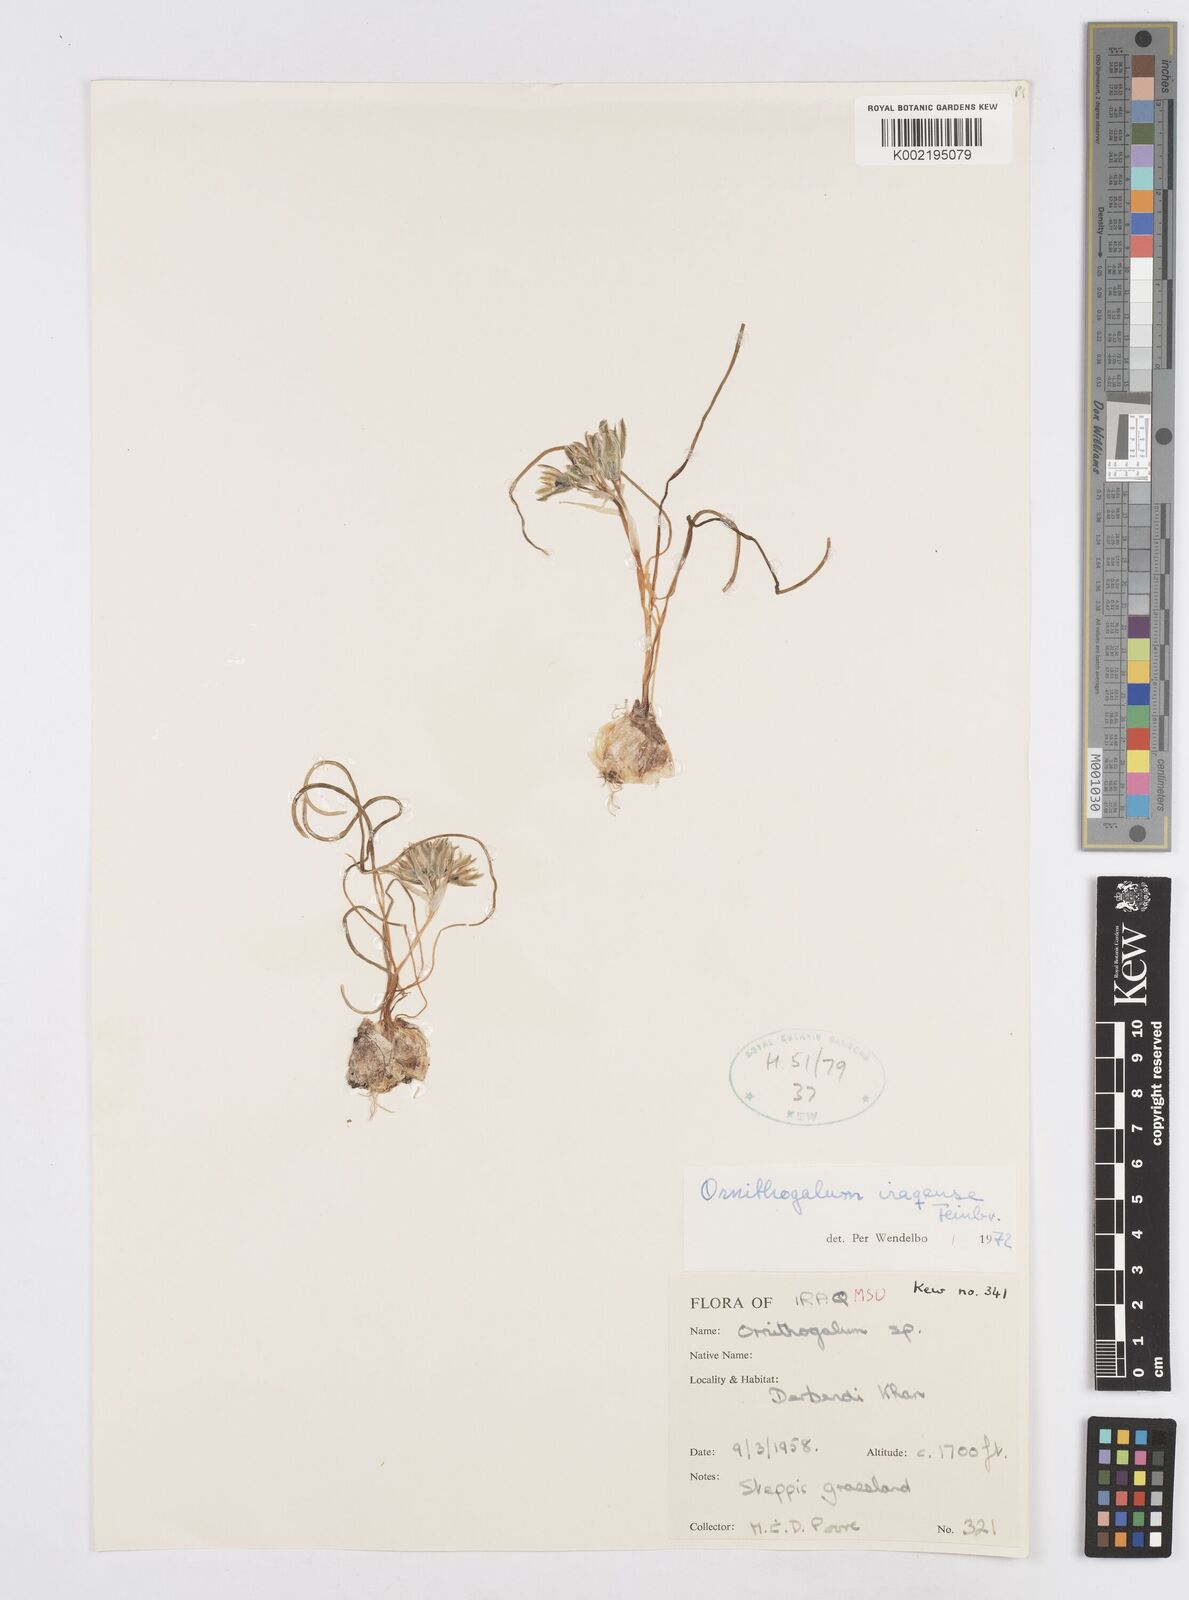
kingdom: Plantae
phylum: Tracheophyta
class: Liliopsida
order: Asparagales
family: Asparagaceae
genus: Ornithogalum
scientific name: Ornithogalum iraqense
